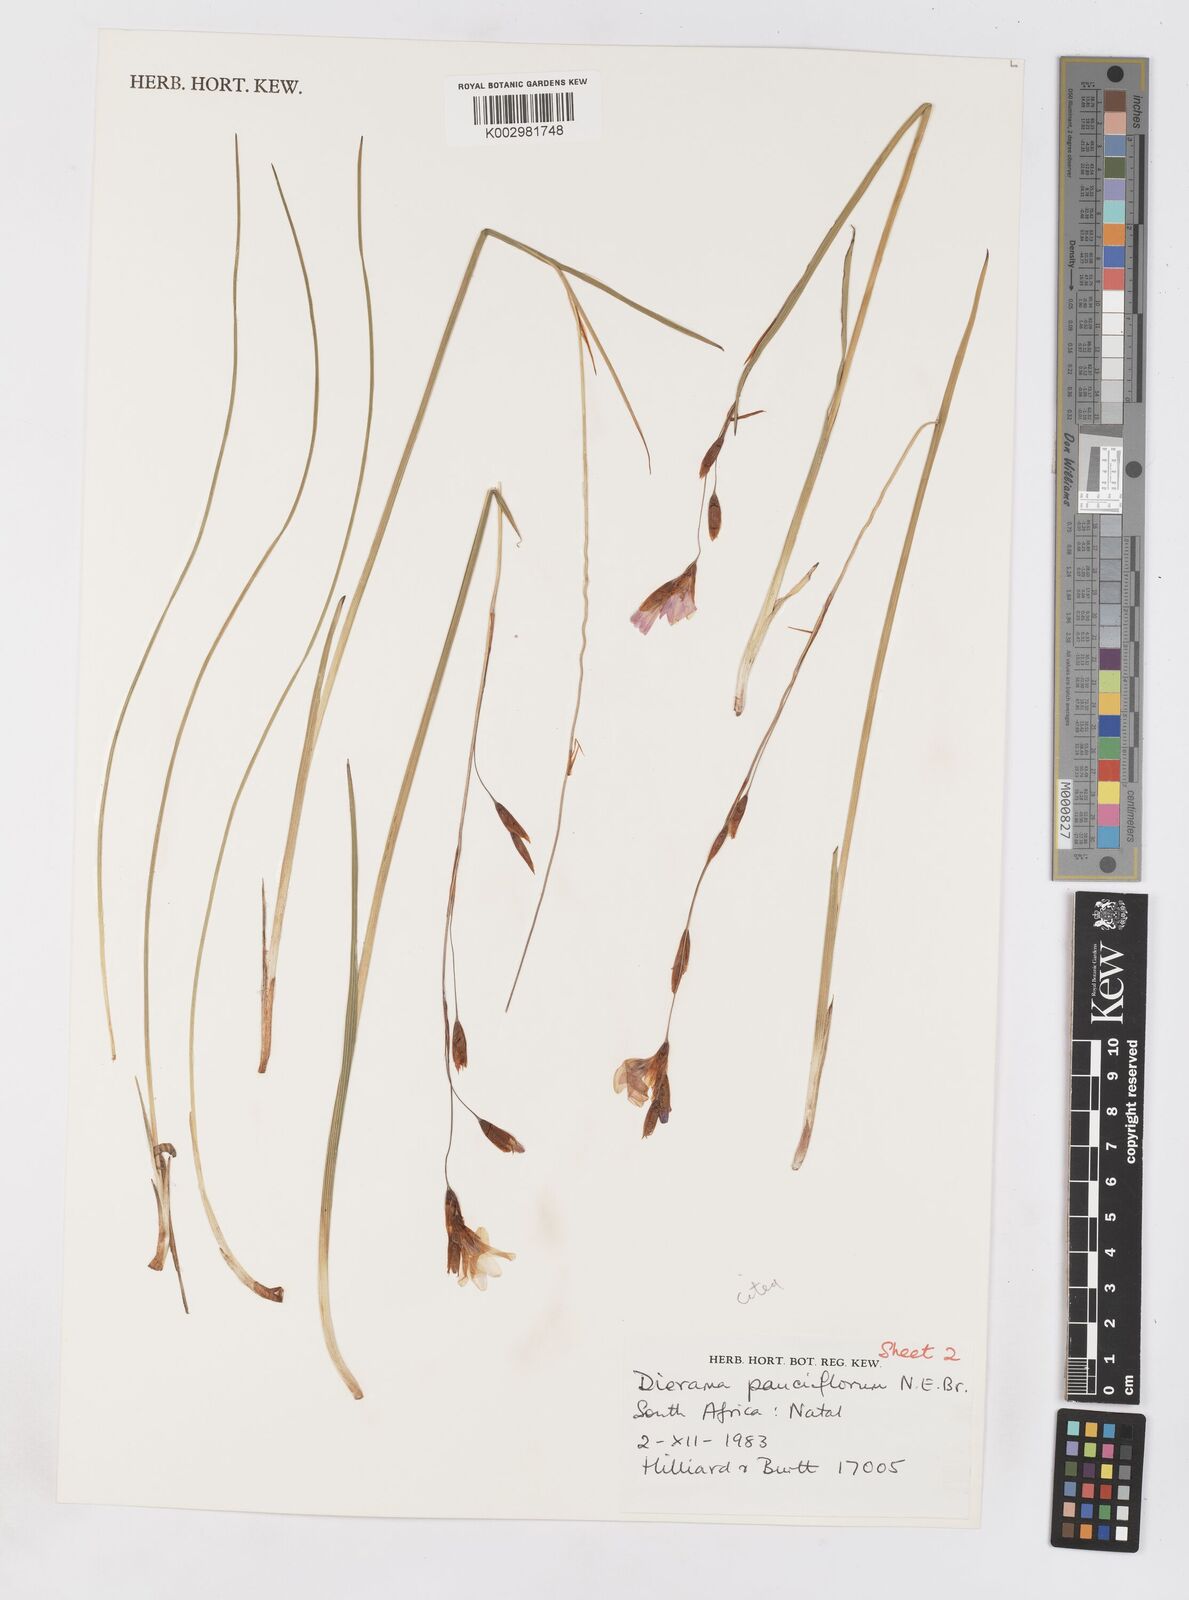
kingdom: Plantae
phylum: Tracheophyta
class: Liliopsida
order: Asparagales
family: Iridaceae
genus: Dierama
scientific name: Dierama pauciflorum
